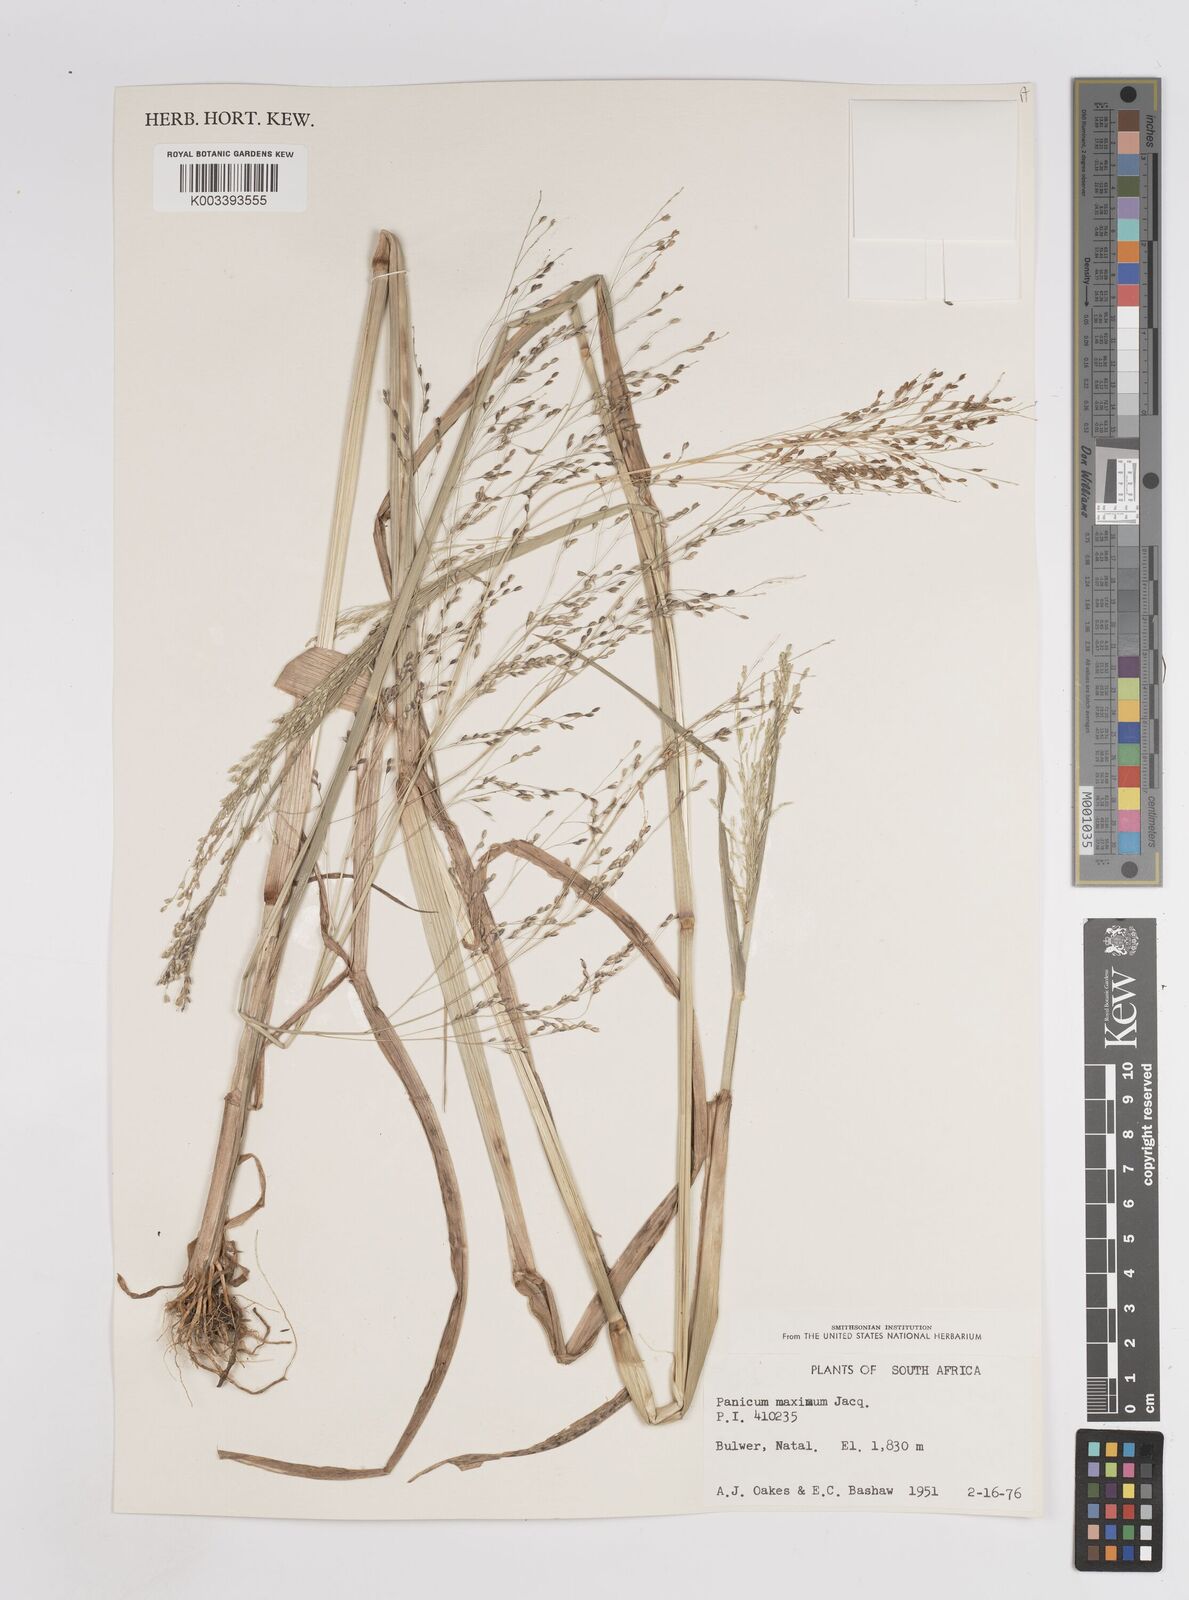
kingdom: Plantae
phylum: Tracheophyta
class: Liliopsida
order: Poales
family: Poaceae
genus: Megathyrsus
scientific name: Megathyrsus maximus
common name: Guineagrass
